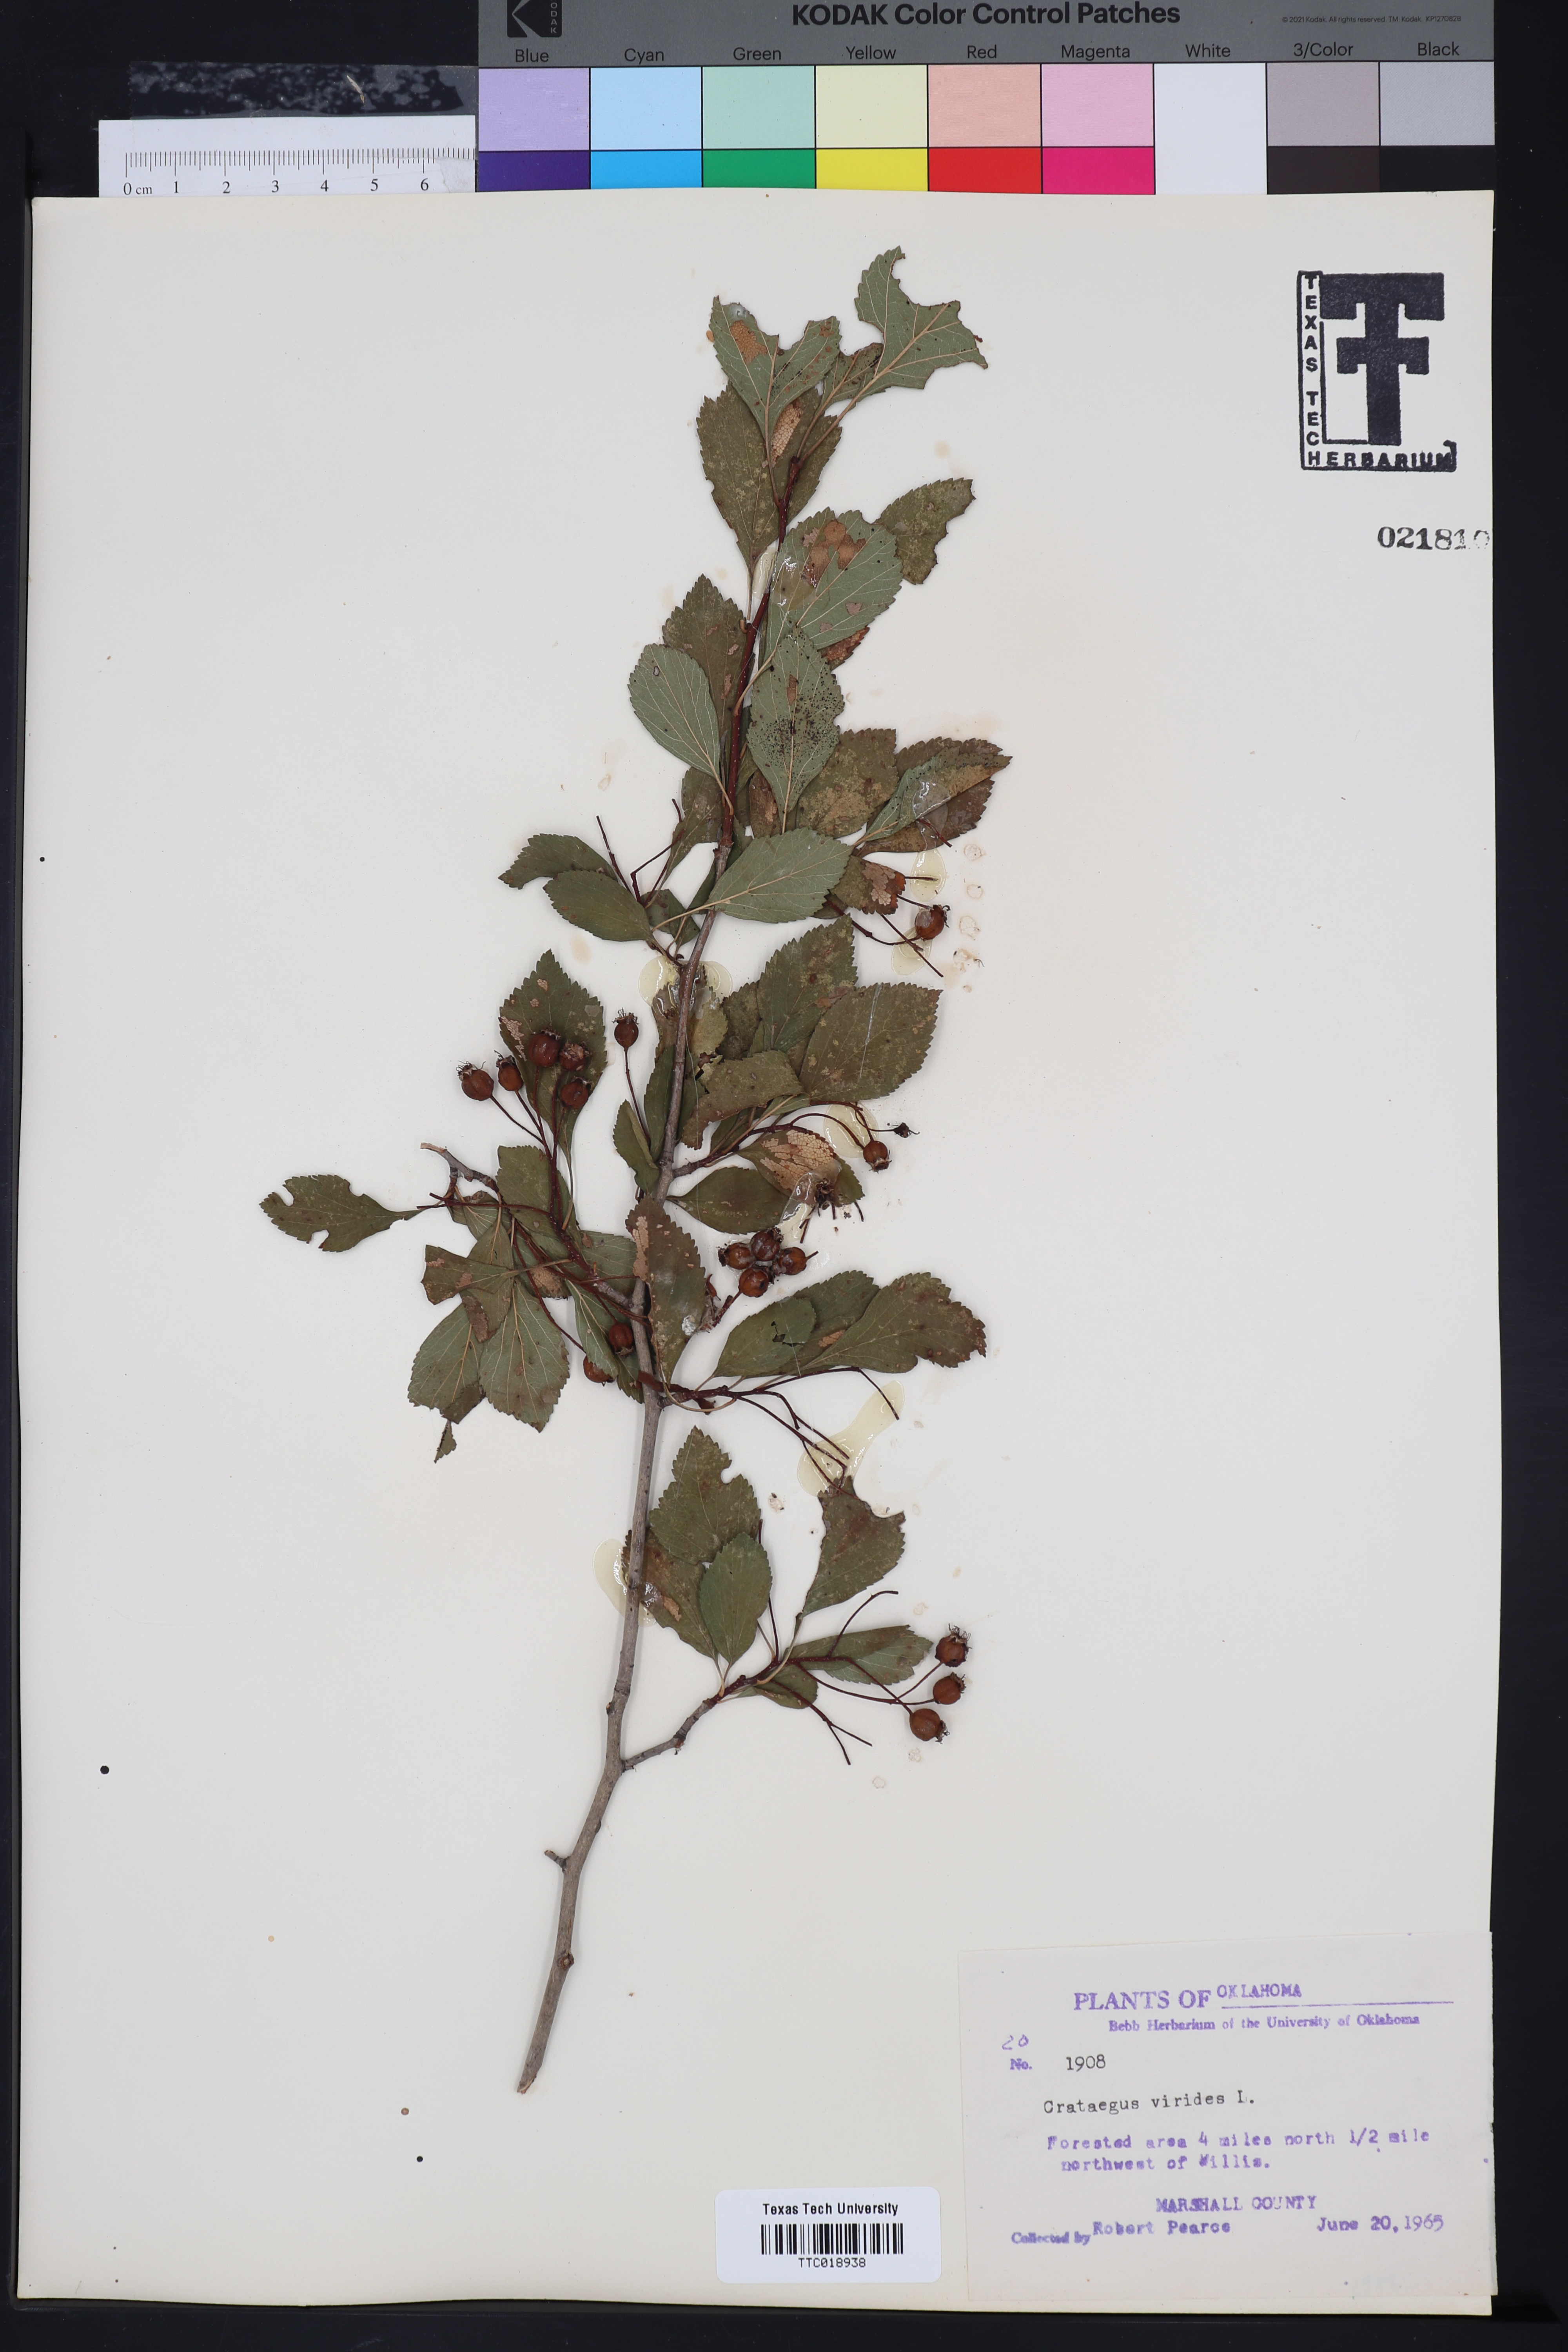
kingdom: Plantae
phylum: Tracheophyta
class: Magnoliopsida
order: Rosales
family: Rosaceae
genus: Crataegus
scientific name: Crataegus viridis
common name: Southernthorn
